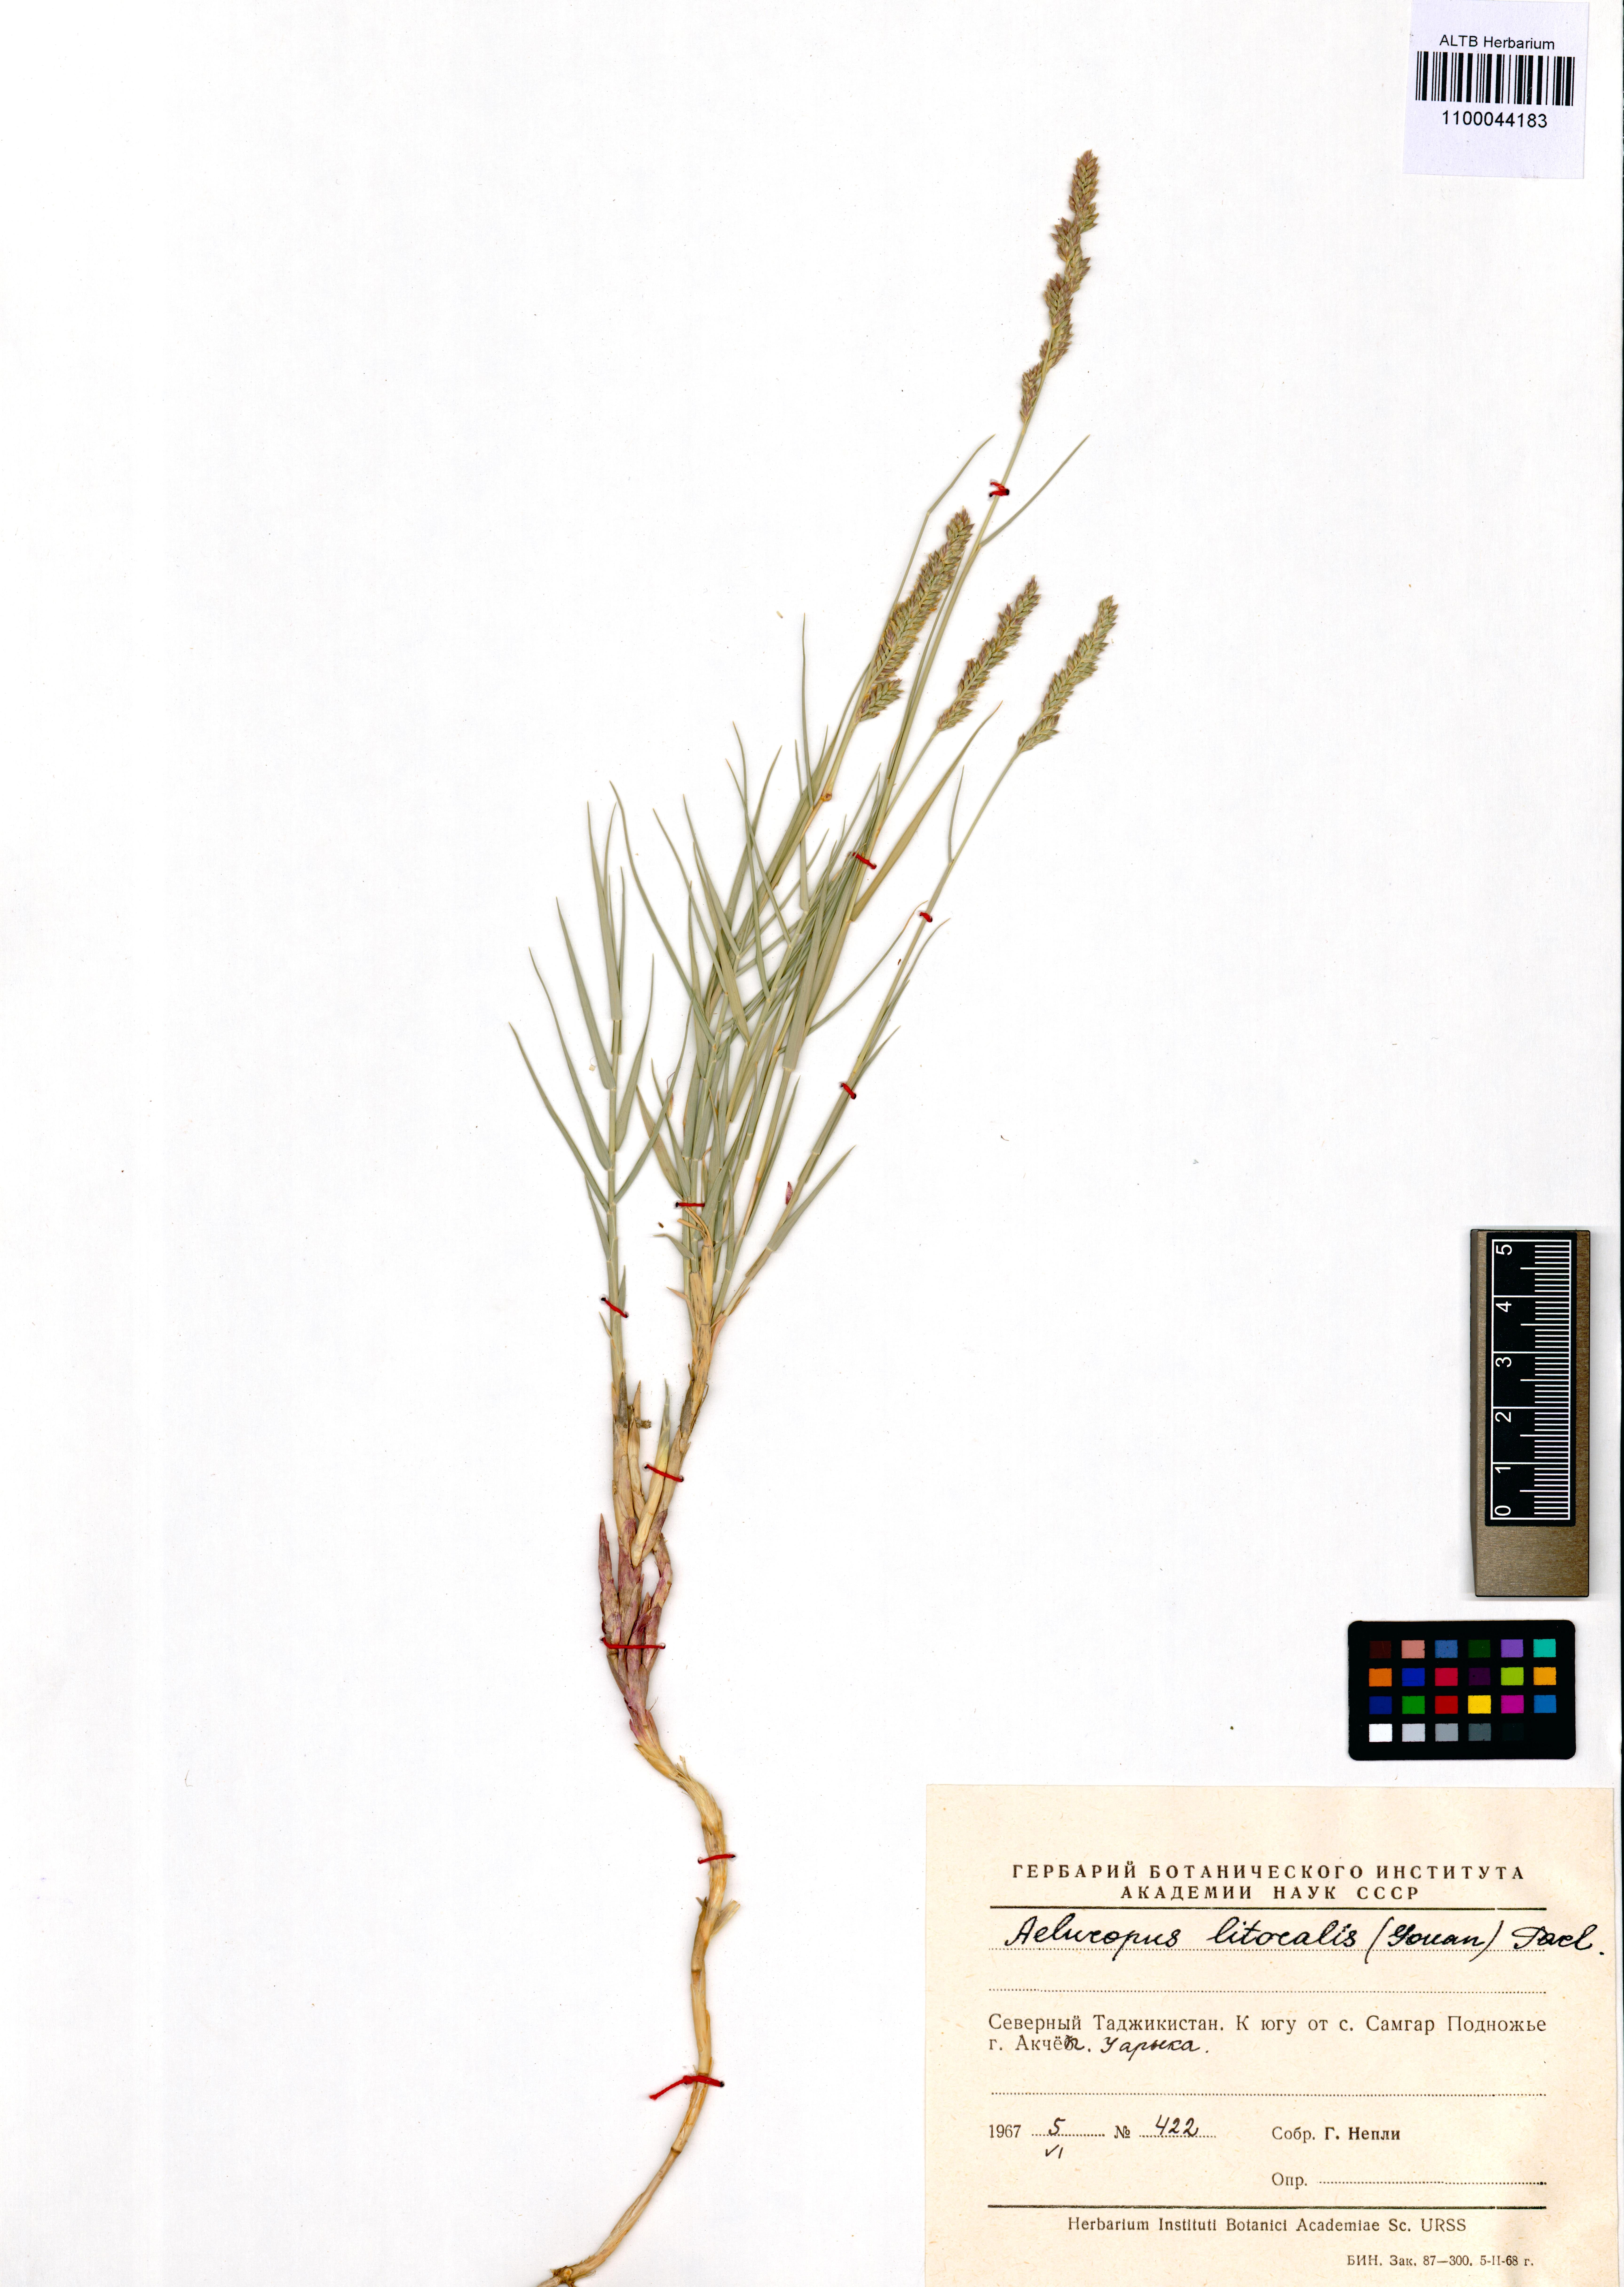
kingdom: Plantae
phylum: Tracheophyta
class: Liliopsida
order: Poales
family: Poaceae
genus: Aeluropus
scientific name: Aeluropus littoralis
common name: Indian walnut
